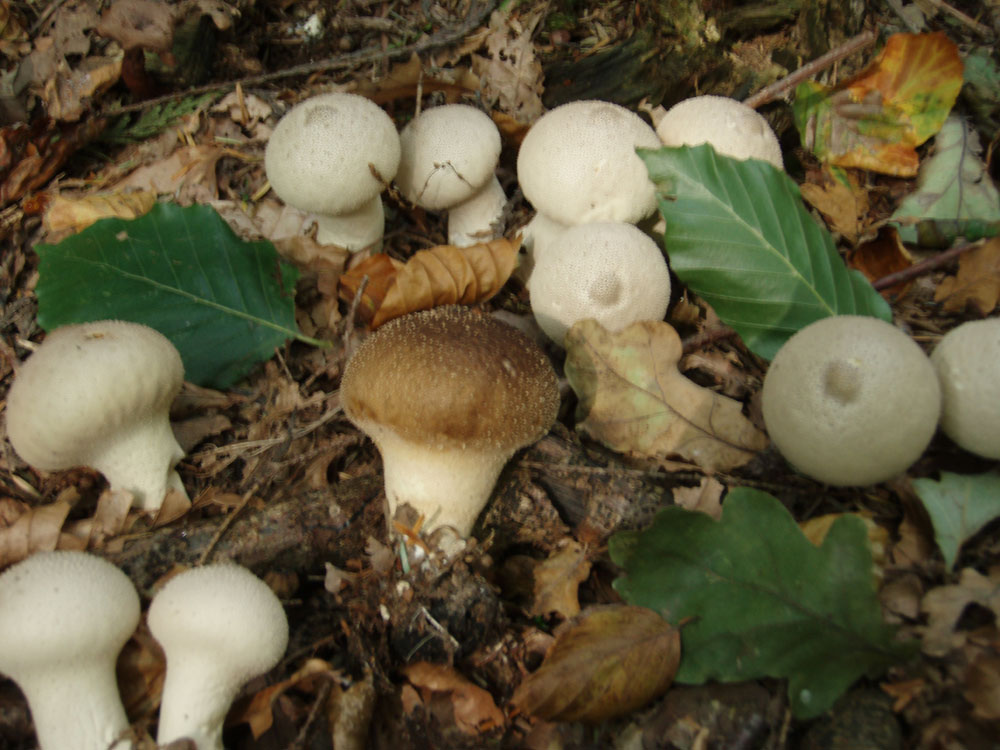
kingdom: Fungi
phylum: Basidiomycota
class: Agaricomycetes
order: Agaricales
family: Lycoperdaceae
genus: Lycoperdon
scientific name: Lycoperdon perlatum
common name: krystal-støvbold
